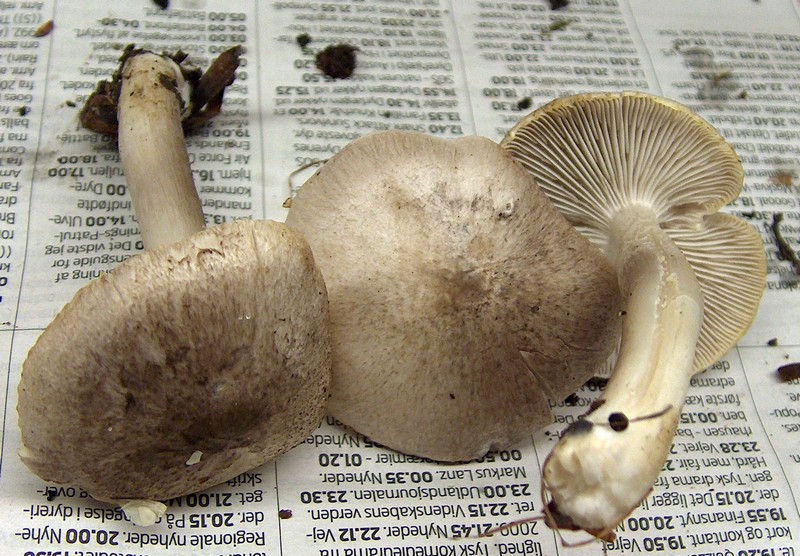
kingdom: Fungi
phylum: Basidiomycota
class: Agaricomycetes
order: Agaricales
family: Tricholomataceae
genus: Tricholoma
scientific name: Tricholoma scalpturatum
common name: gulplettet ridderhat
